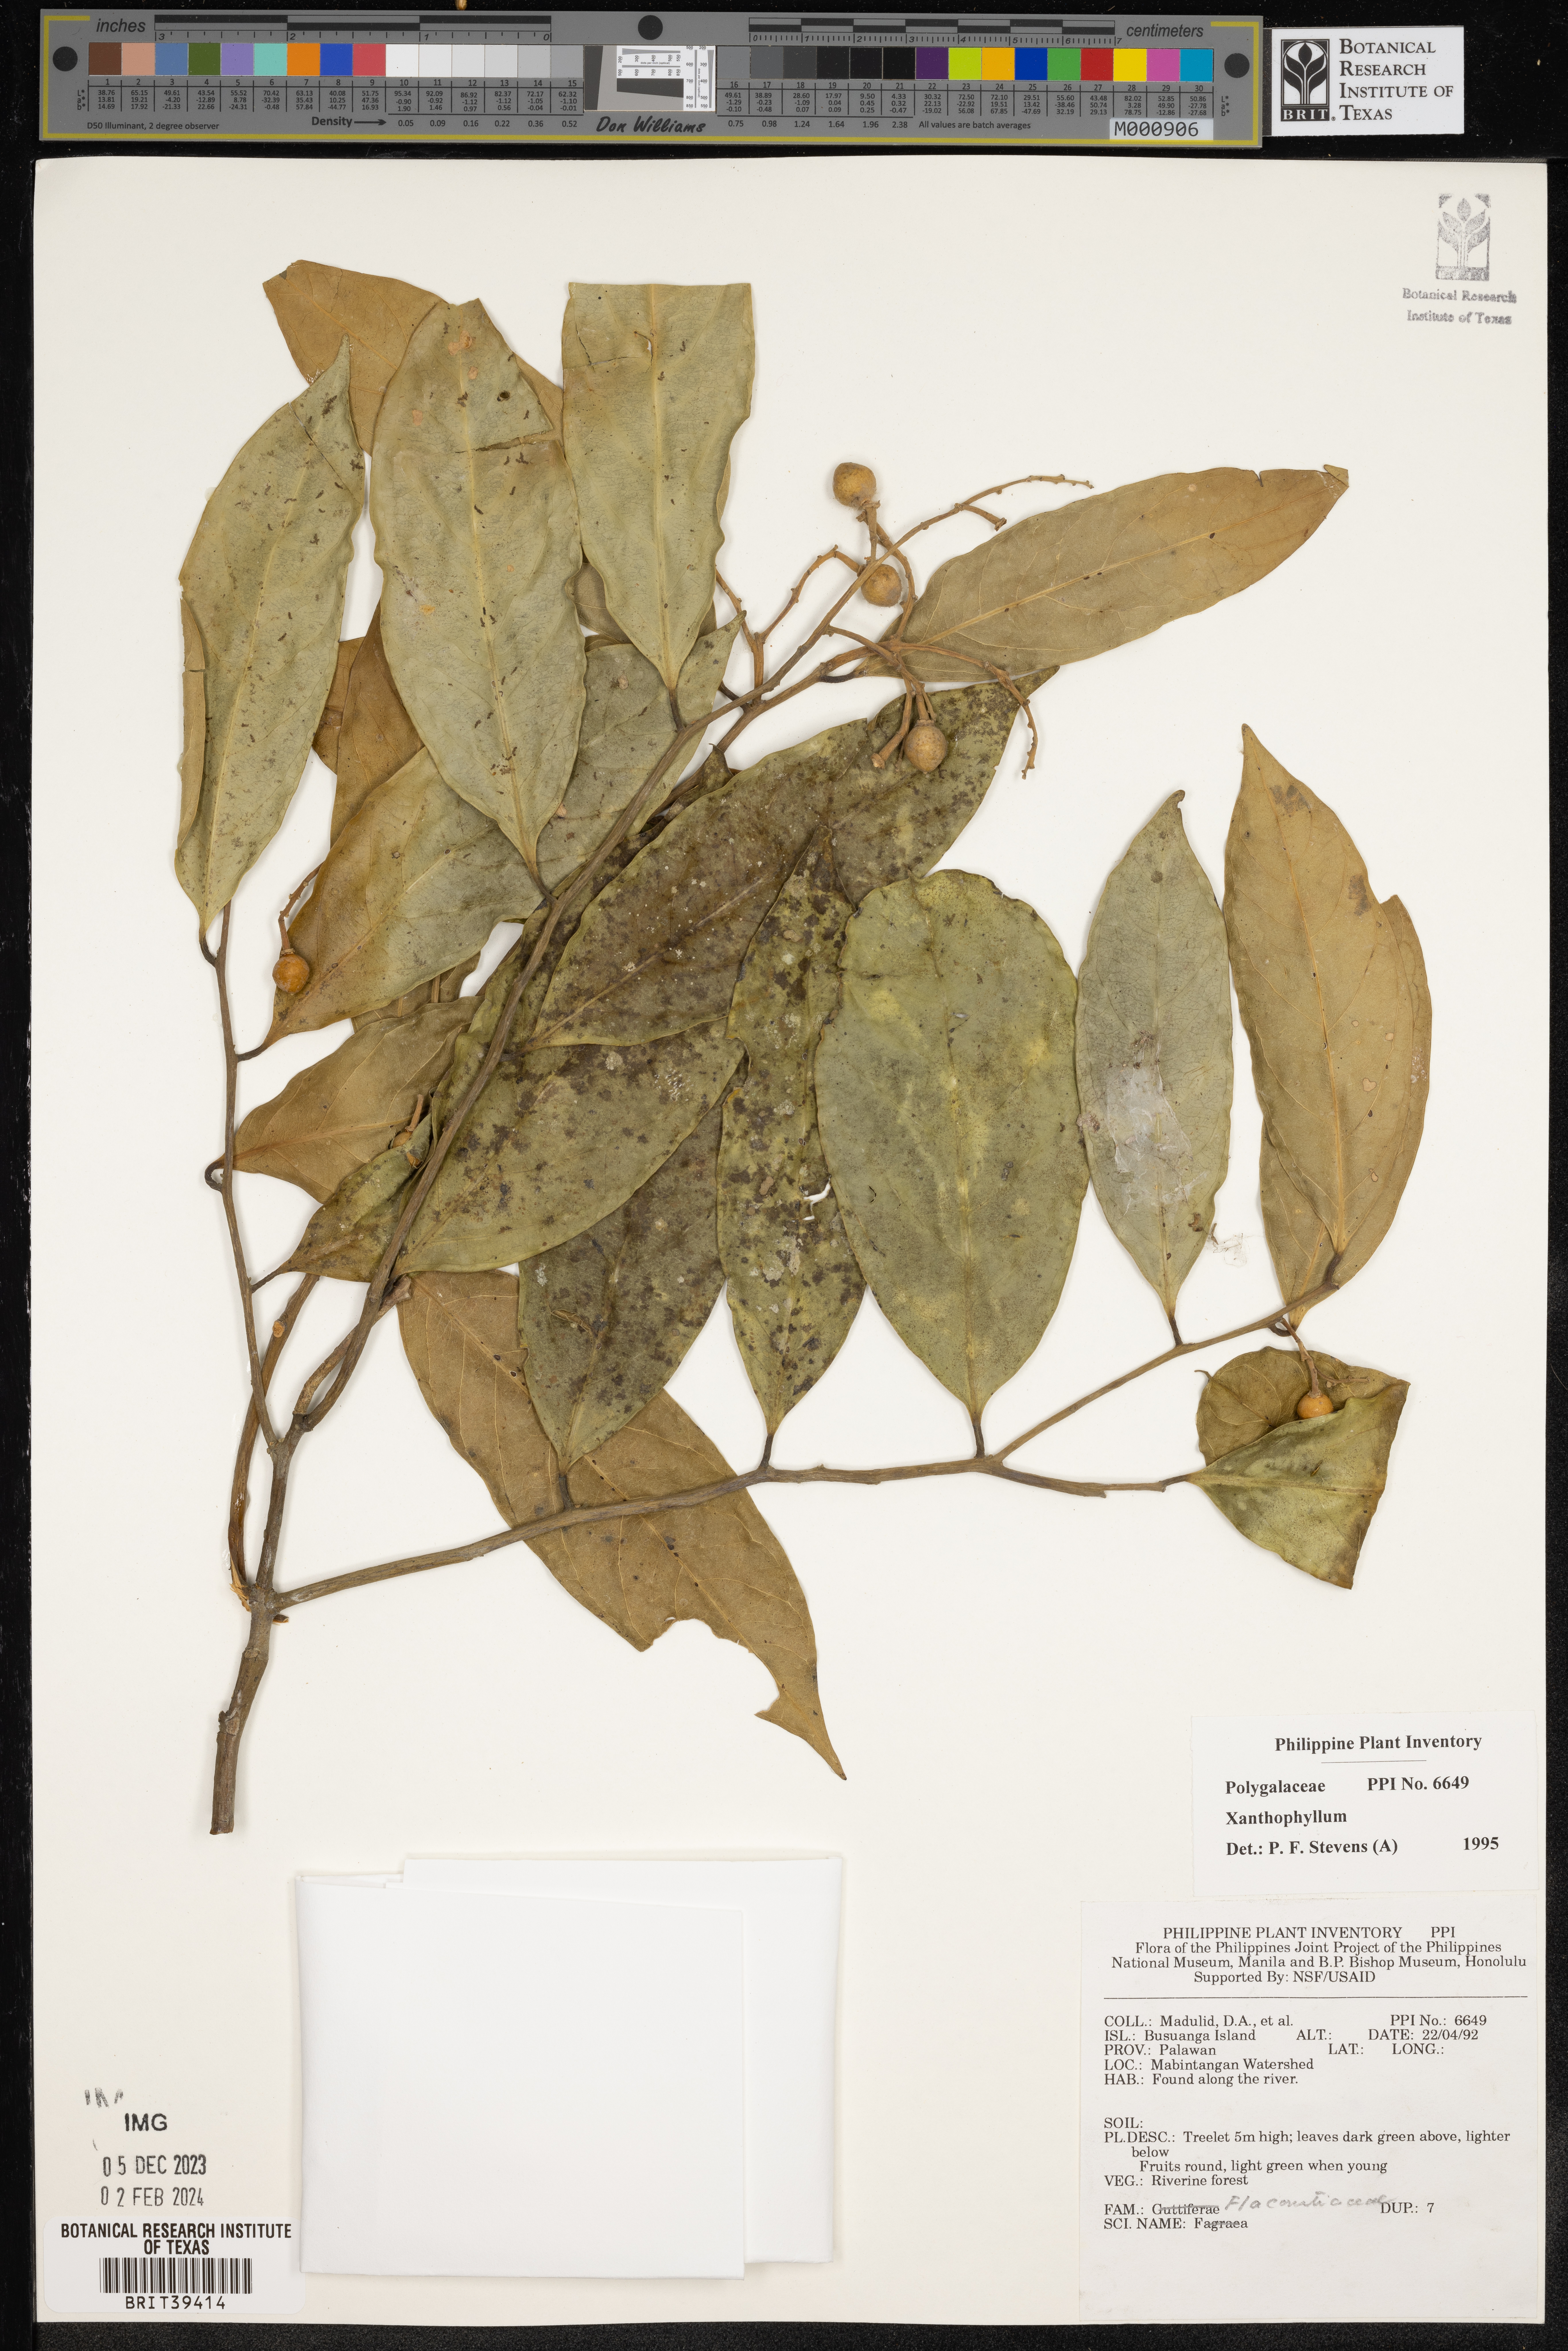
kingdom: Plantae
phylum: Tracheophyta
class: Magnoliopsida
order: Fabales
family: Polygalaceae
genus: Xanthophyllum
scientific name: Xanthophyllum
